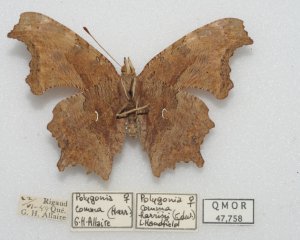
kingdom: Animalia
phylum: Arthropoda
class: Insecta
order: Lepidoptera
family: Nymphalidae
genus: Polygonia
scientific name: Polygonia comma
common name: Eastern Comma
